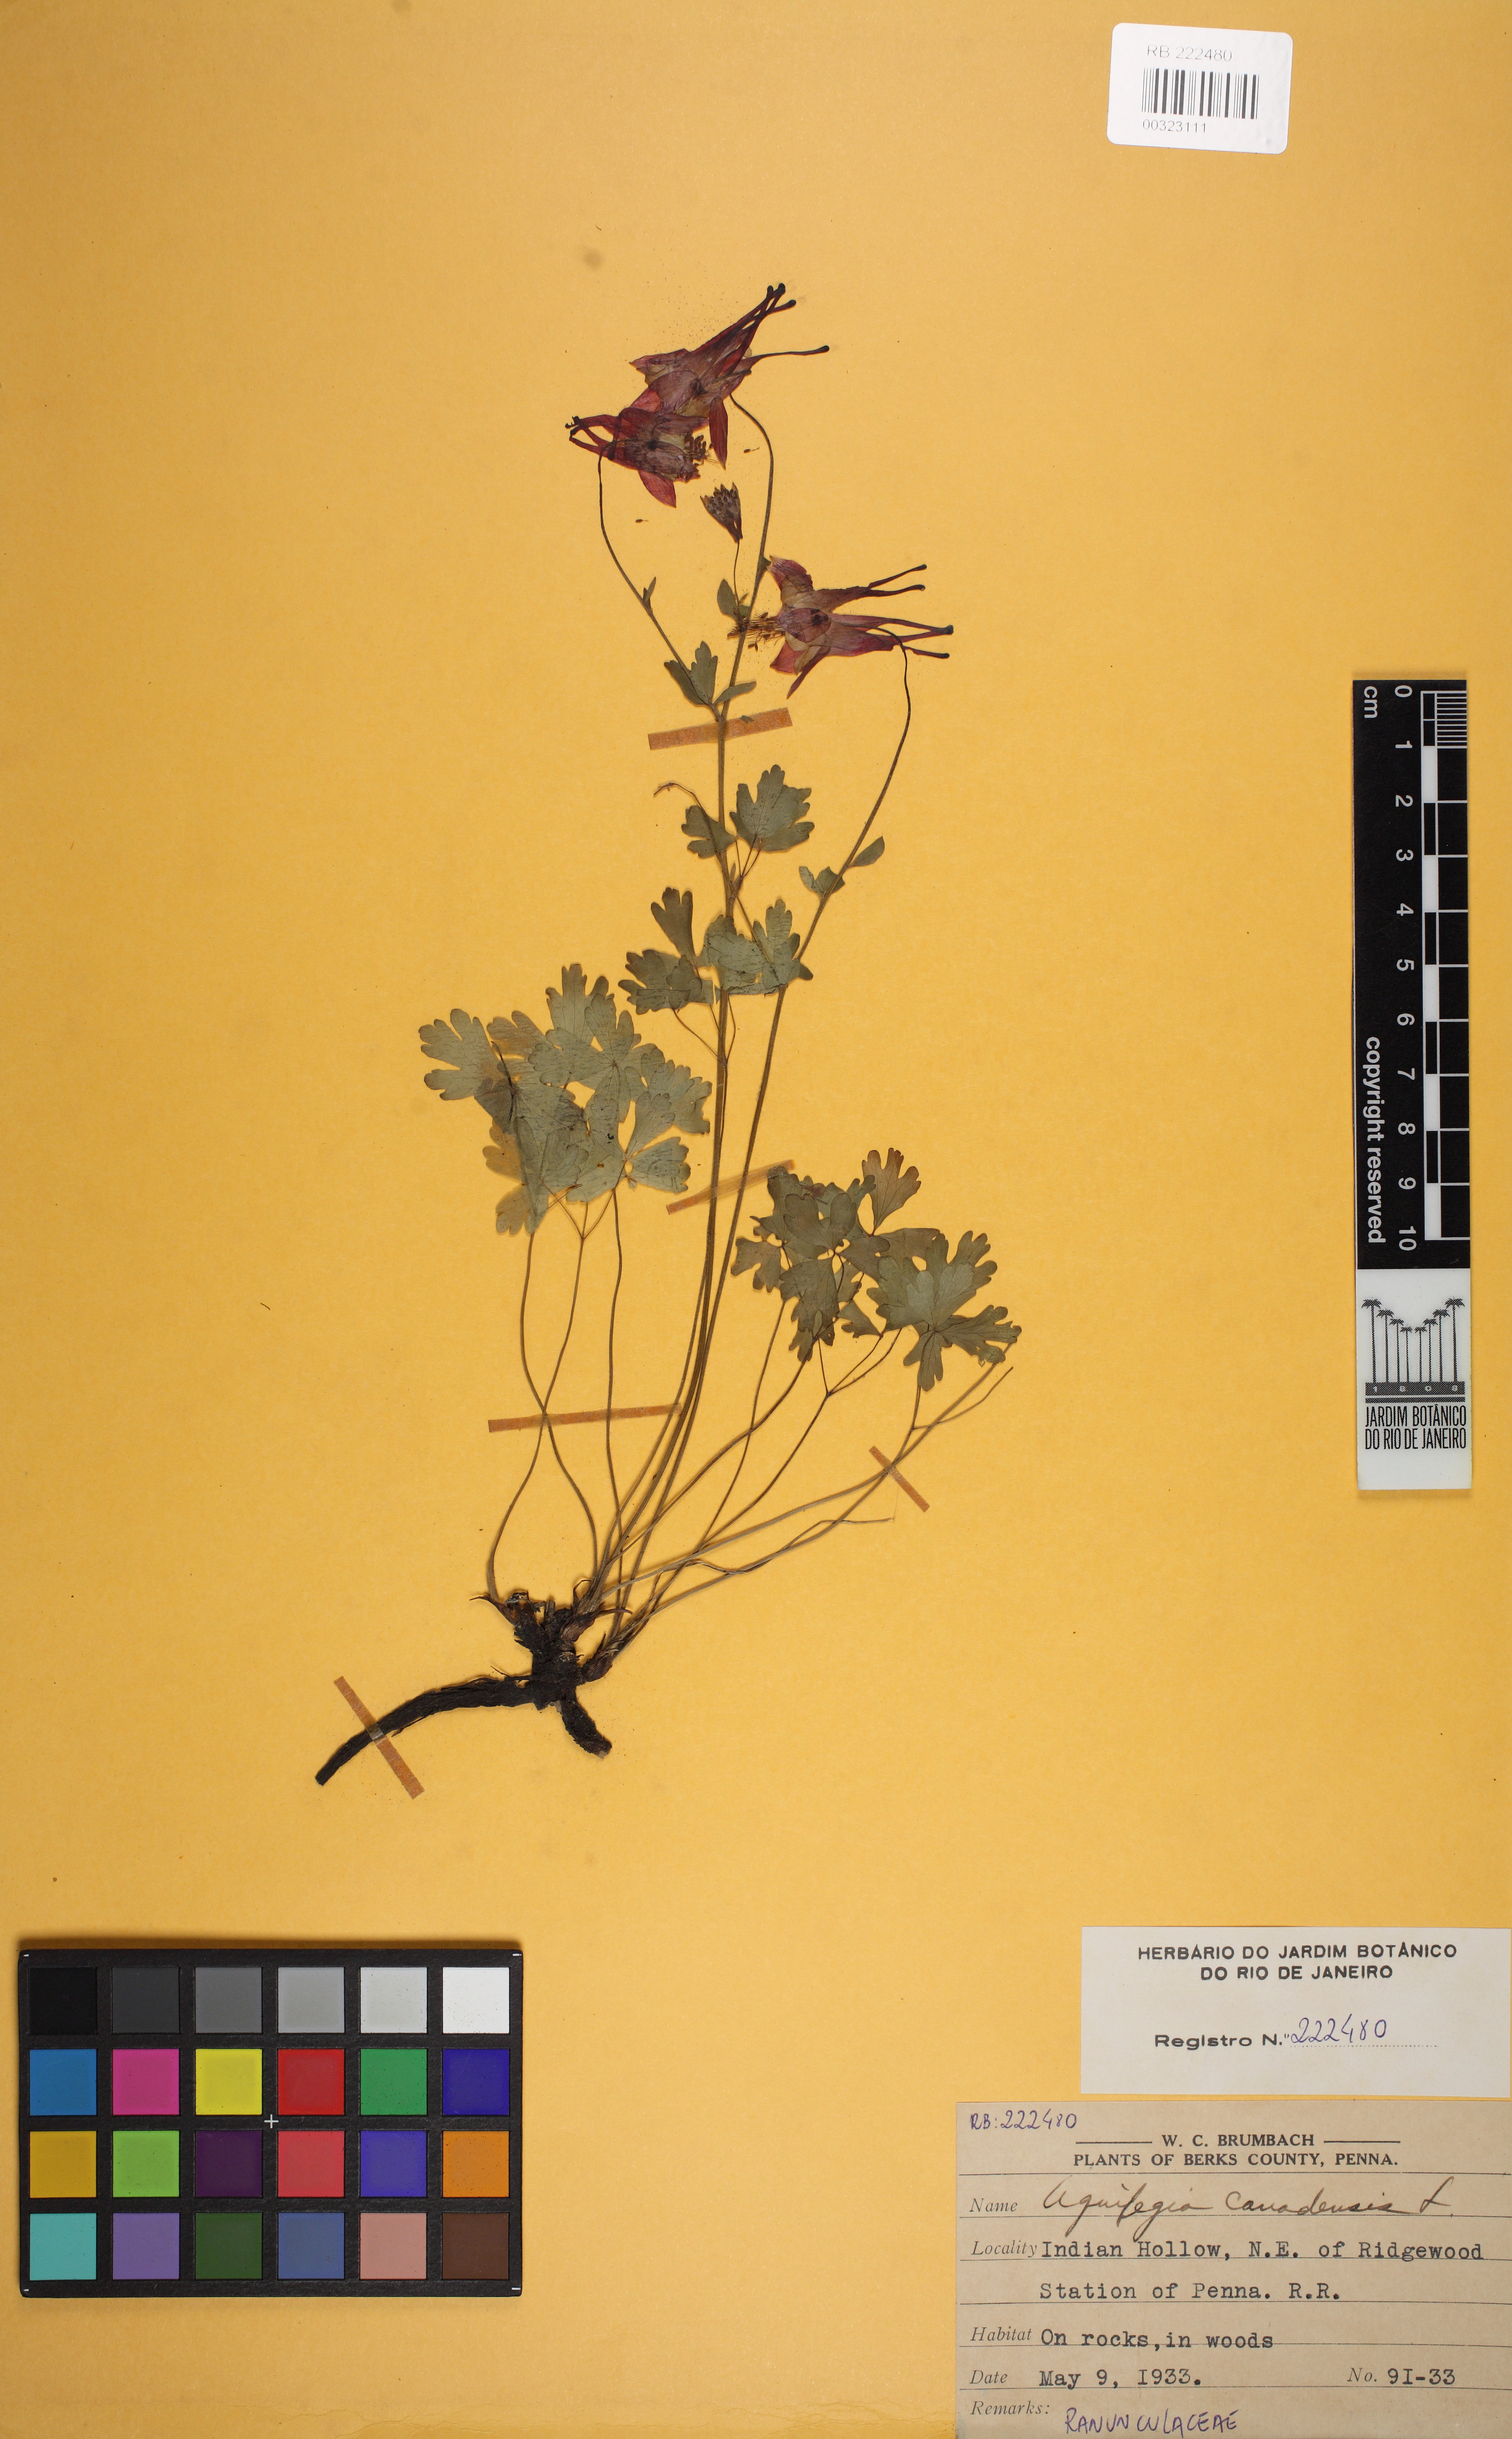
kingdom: Plantae
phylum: Tracheophyta
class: Magnoliopsida
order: Ranunculales
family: Ranunculaceae
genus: Aquilegia
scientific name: Aquilegia canadensis
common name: American columbine
